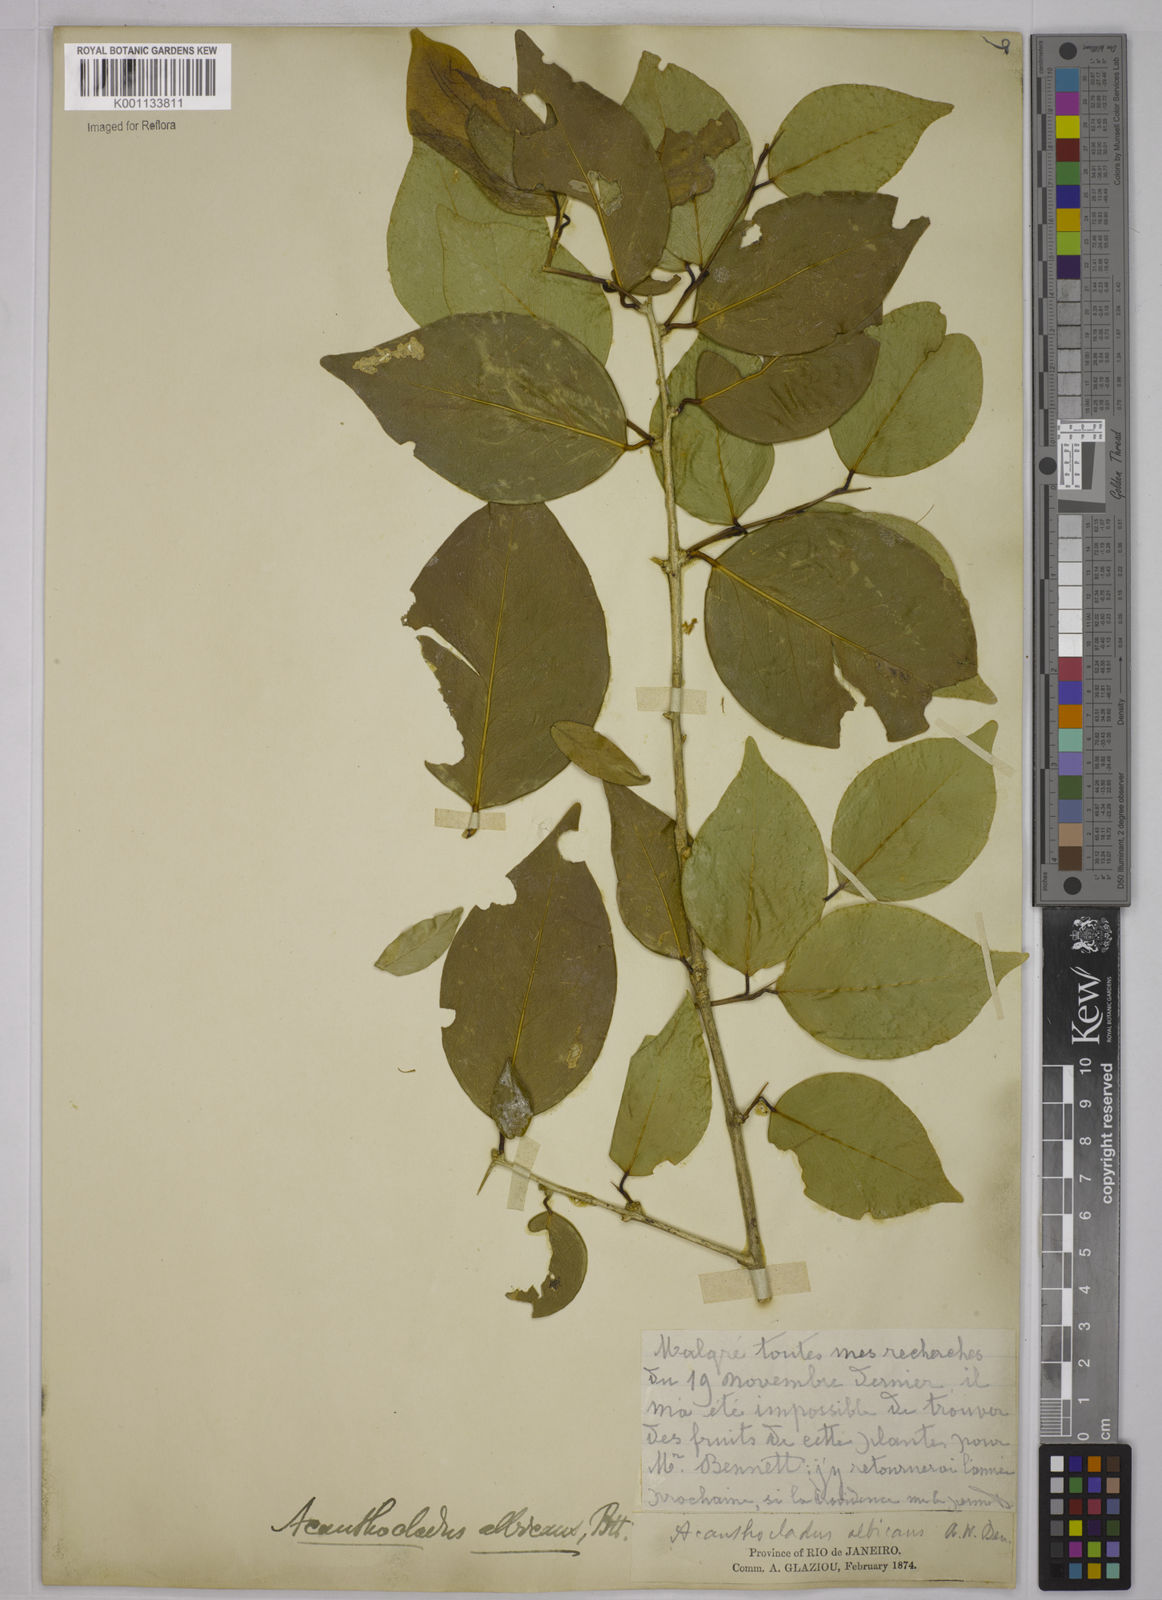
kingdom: Plantae
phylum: Tracheophyta
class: Magnoliopsida
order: Fabales
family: Polygalaceae
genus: Acanthocladus
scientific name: Acanthocladus dichromus
